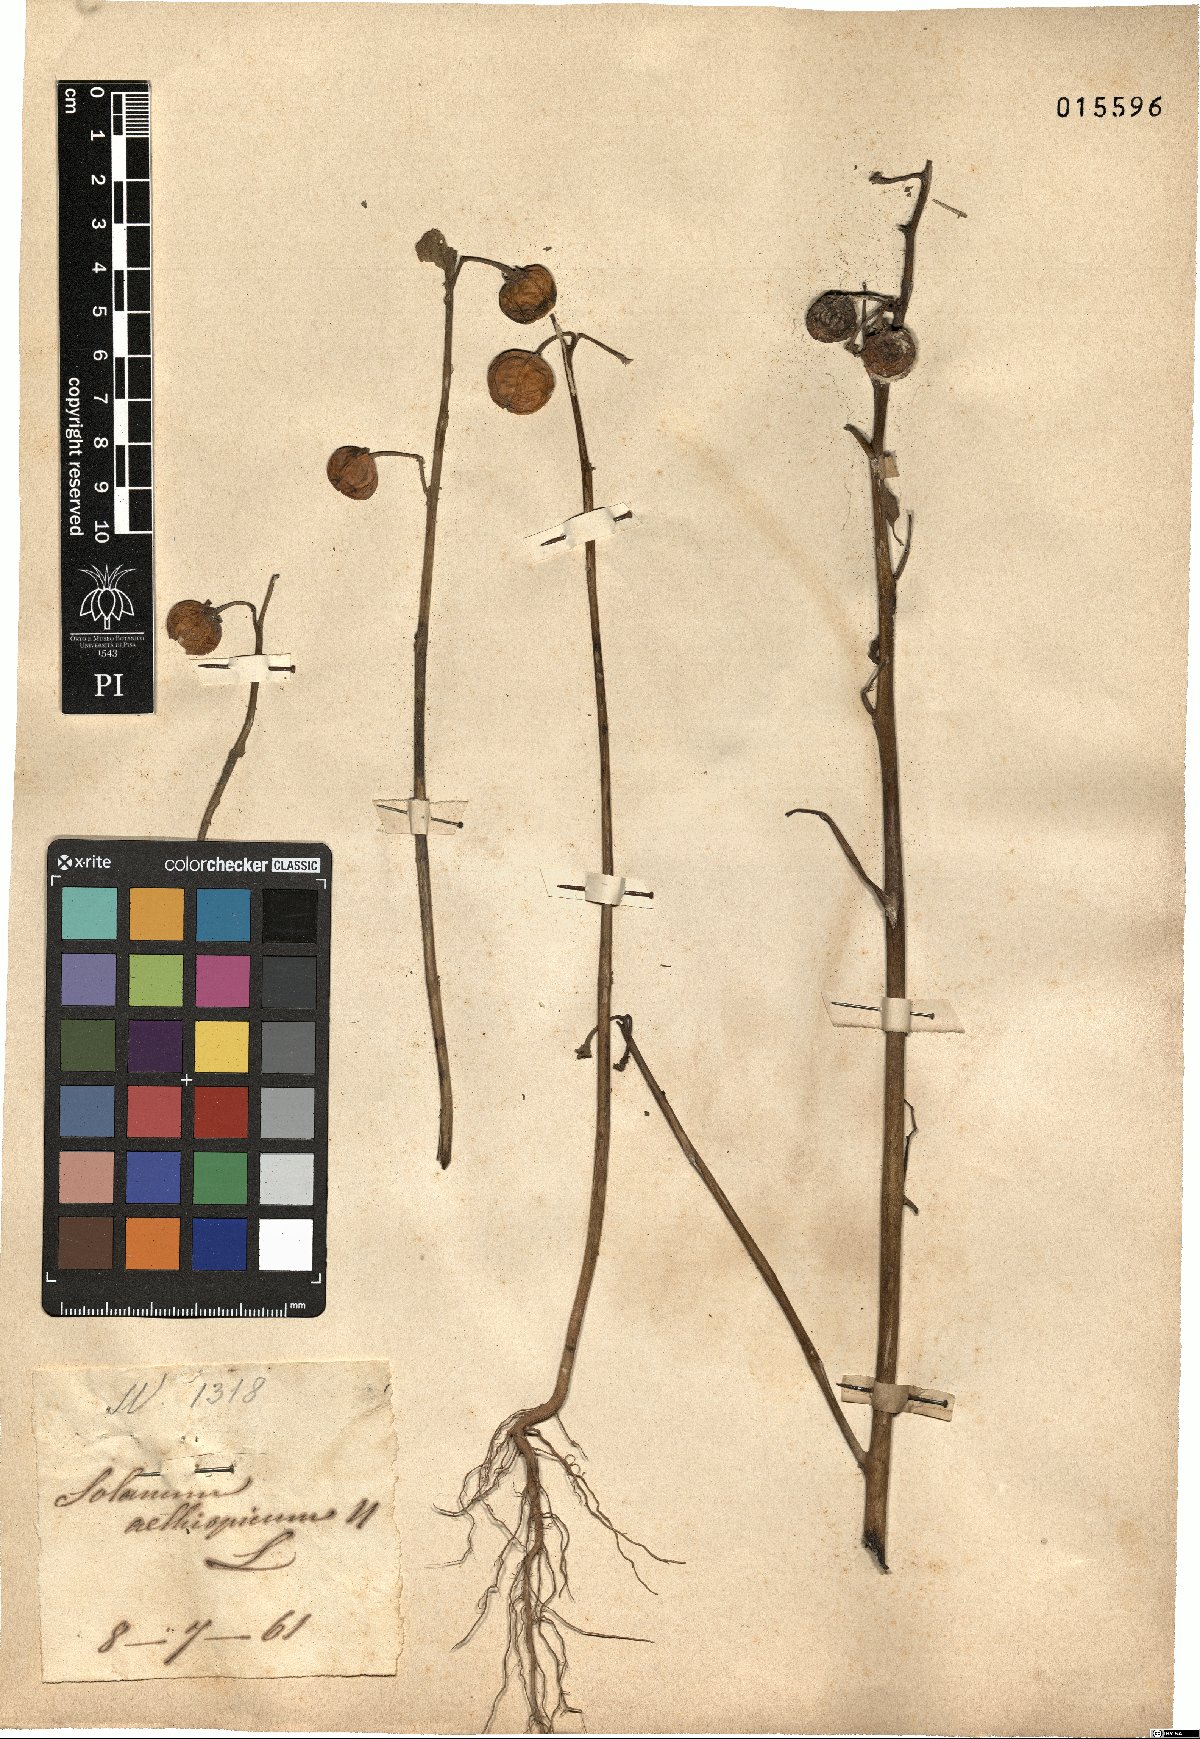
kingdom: Plantae
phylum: Tracheophyta
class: Magnoliopsida
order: Solanales
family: Solanaceae
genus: Solanum
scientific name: Solanum aethiopicum
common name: Gilo
